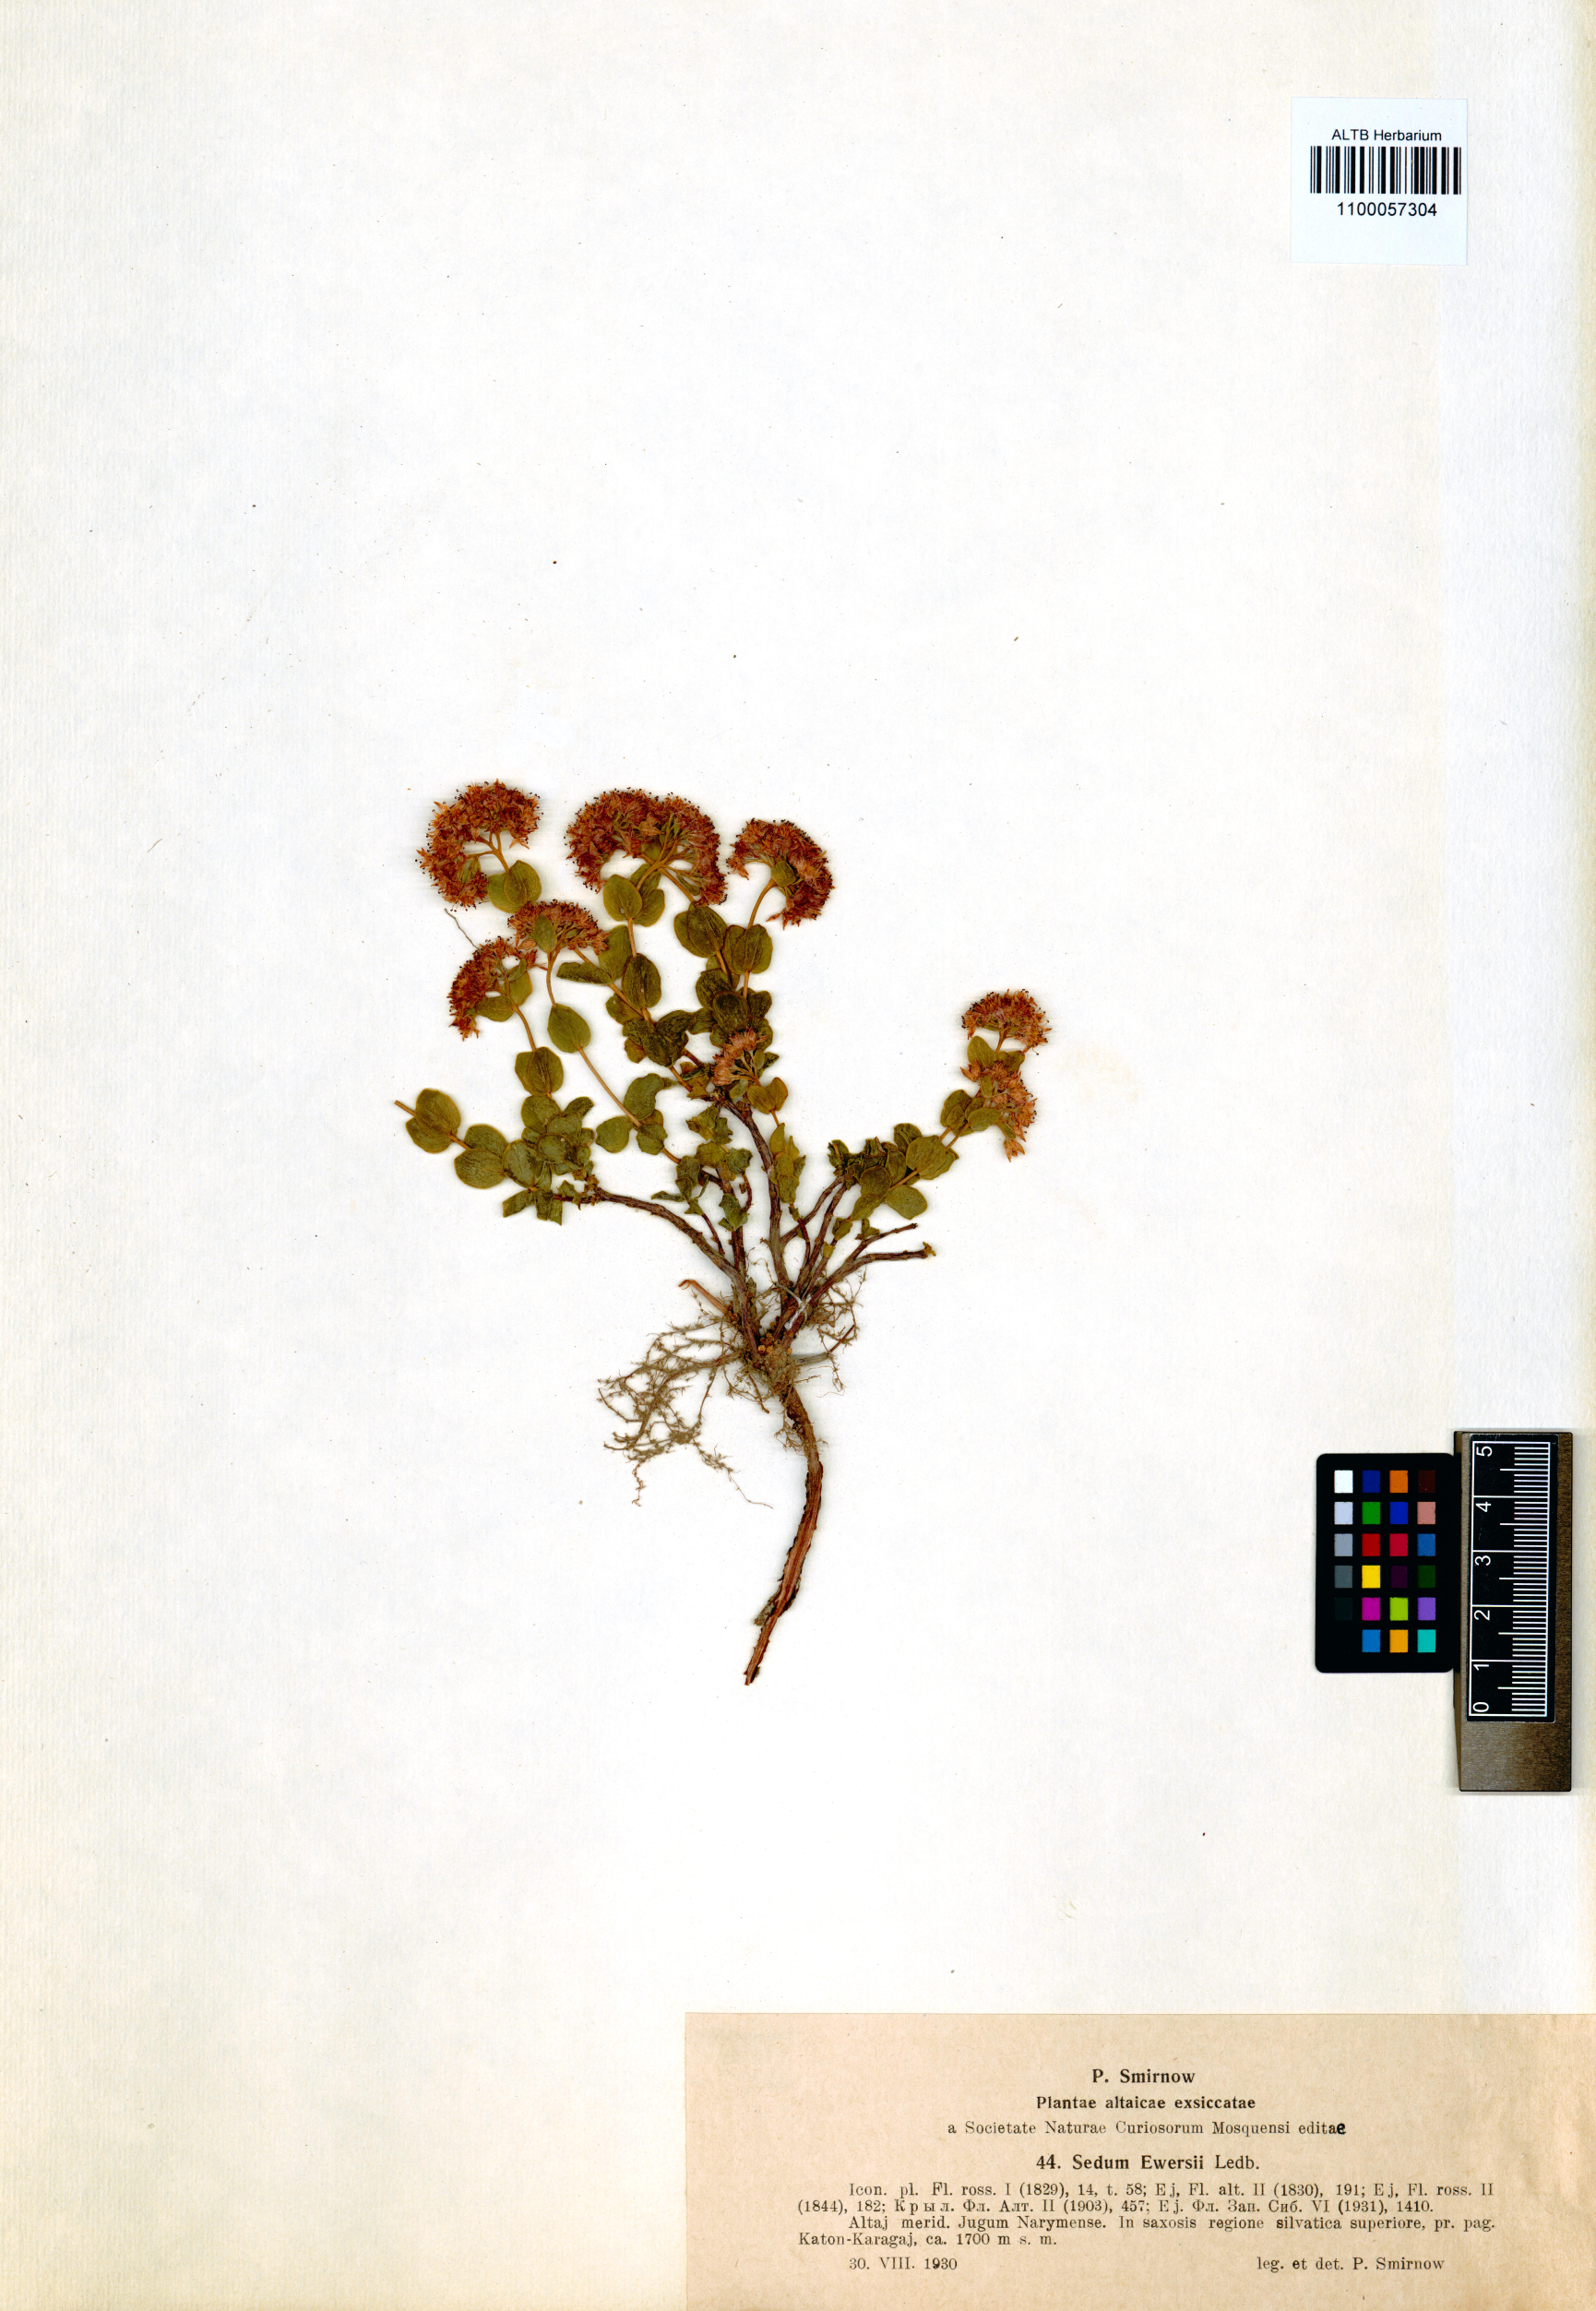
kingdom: Plantae
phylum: Tracheophyta
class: Magnoliopsida
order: Saxifragales
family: Crassulaceae
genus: Hylotelephium
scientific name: Hylotelephium ewersii
